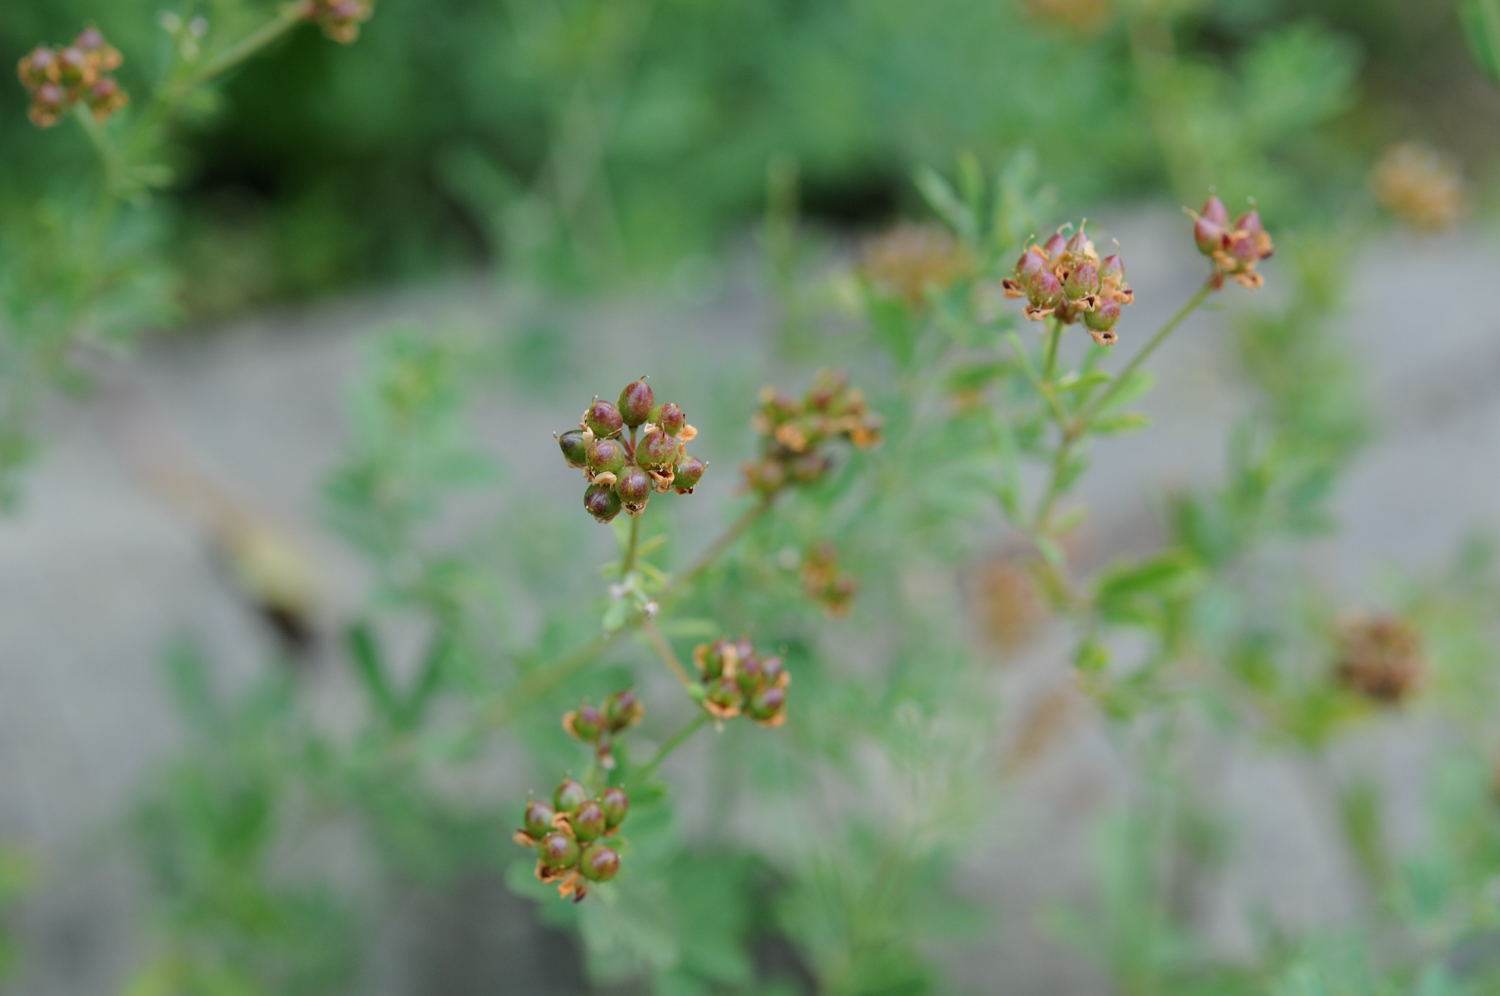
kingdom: Plantae
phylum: Tracheophyta
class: Magnoliopsida
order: Fabales
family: Fabaceae
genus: Lotus
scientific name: Lotus
